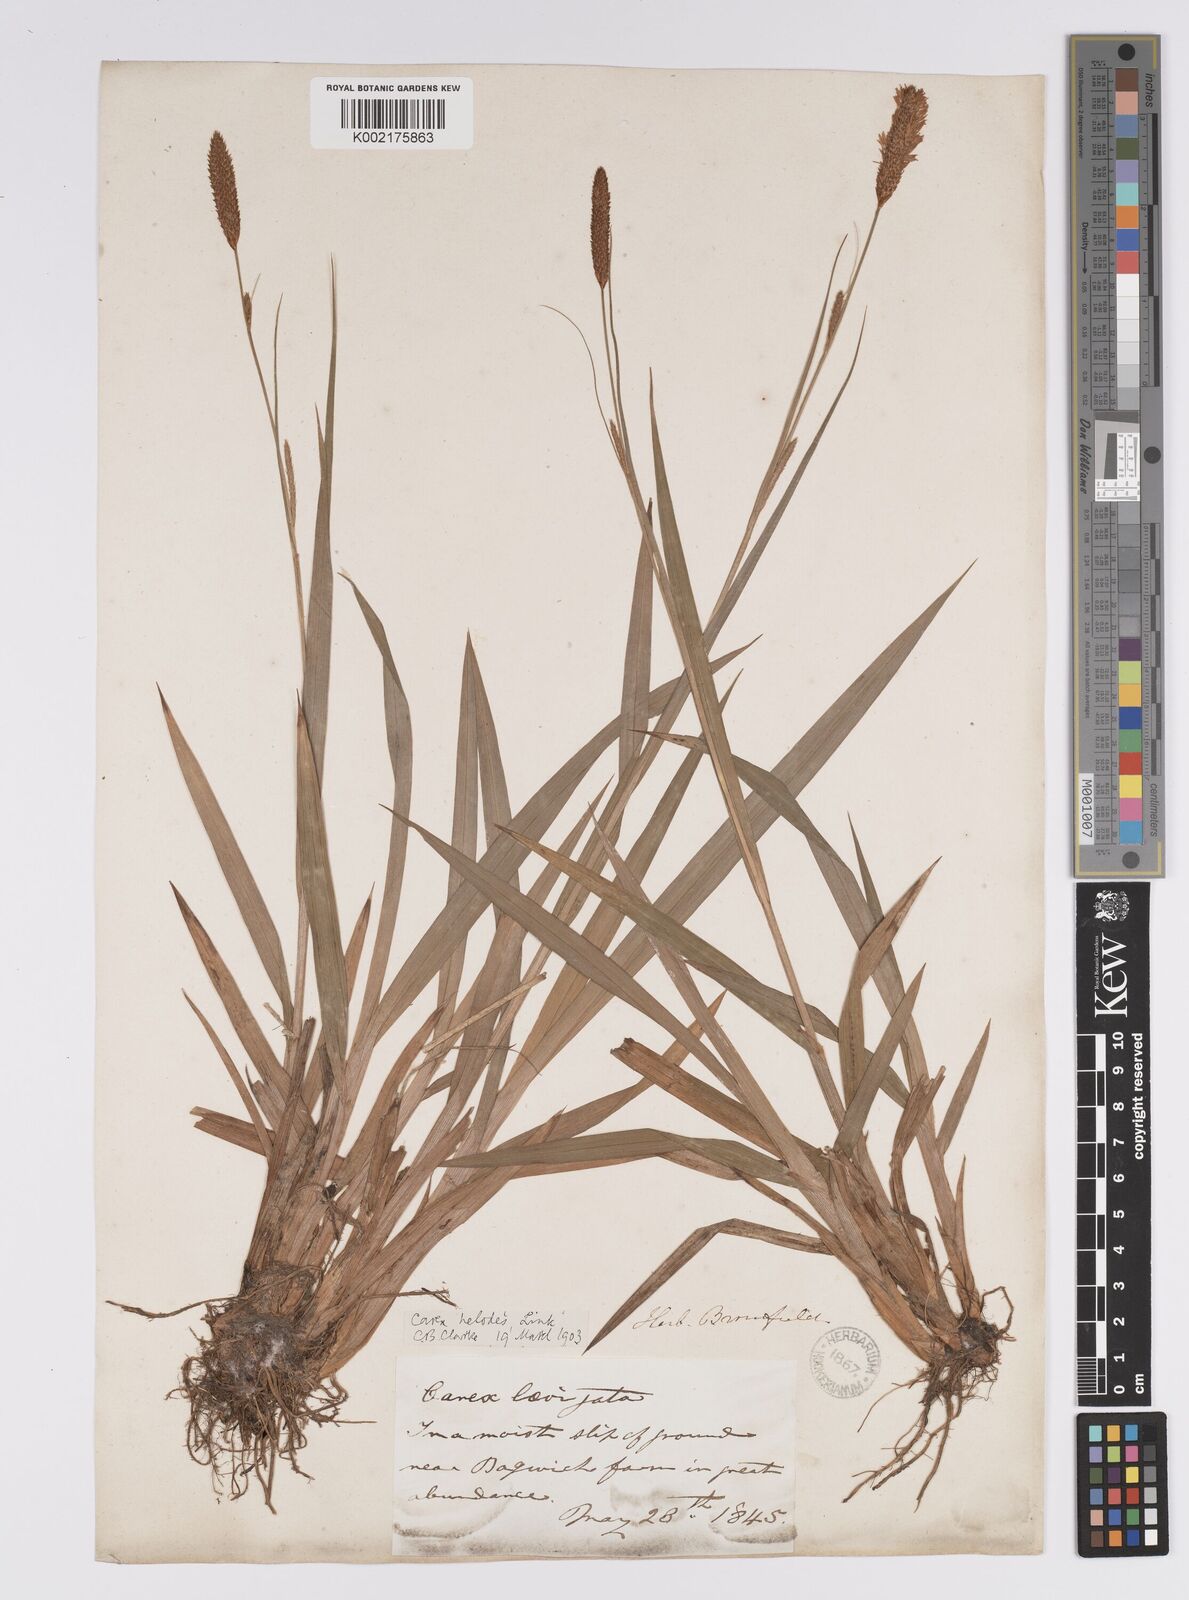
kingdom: Plantae
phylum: Tracheophyta
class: Liliopsida
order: Poales
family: Cyperaceae
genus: Carex
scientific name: Carex laevigata
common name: Smooth-stalked sedge
